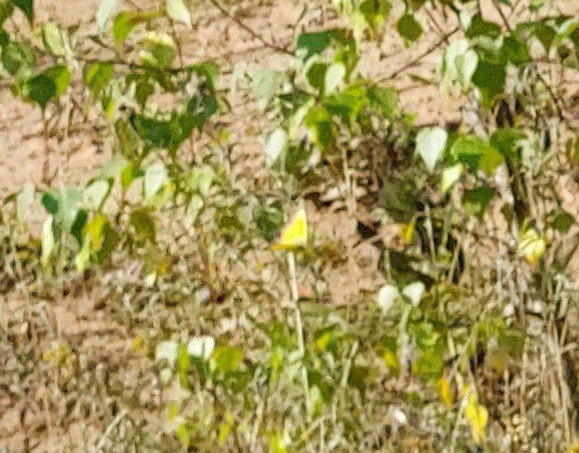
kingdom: Animalia
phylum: Arthropoda
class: Insecta
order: Lepidoptera
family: Pieridae
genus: Colias
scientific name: Colias eurytheme
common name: Orange Sulphur
